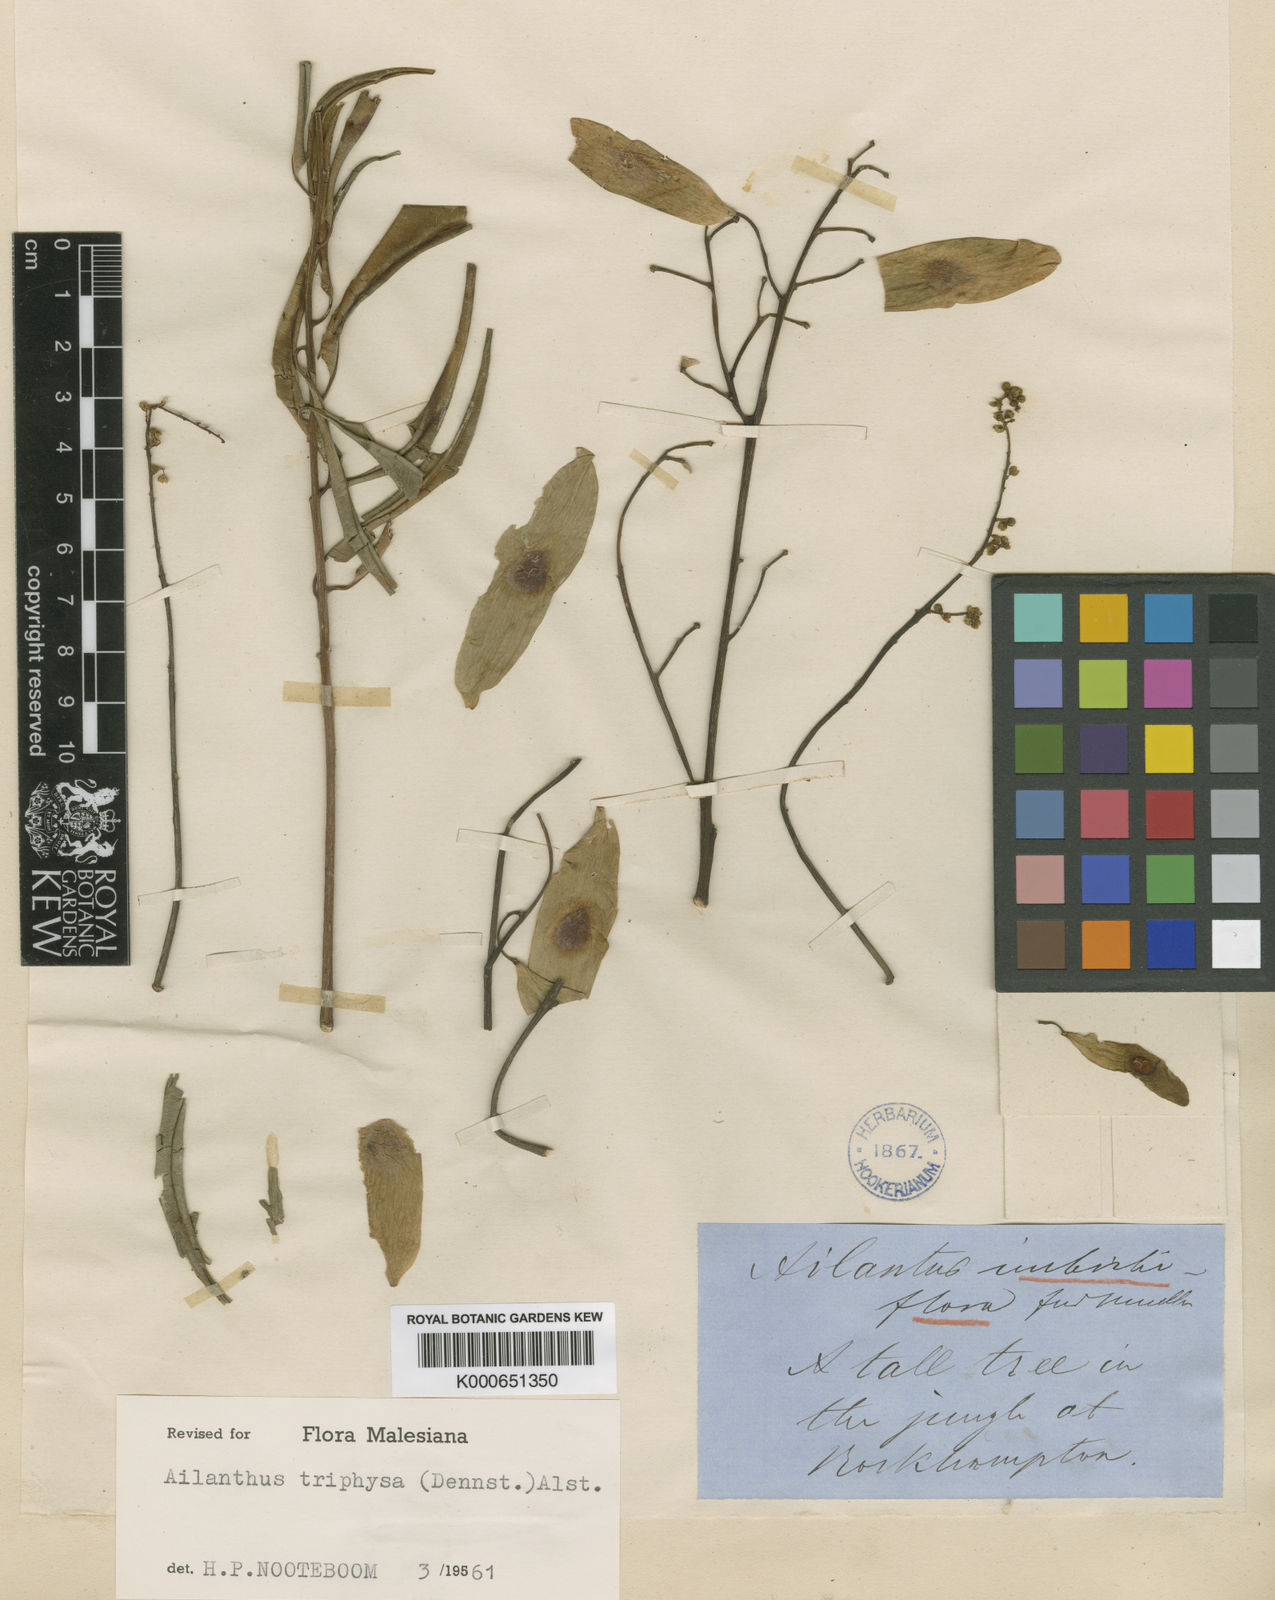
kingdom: Plantae
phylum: Tracheophyta
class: Magnoliopsida
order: Sapindales
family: Simaroubaceae
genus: Ailanthus
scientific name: Ailanthus triphysa
